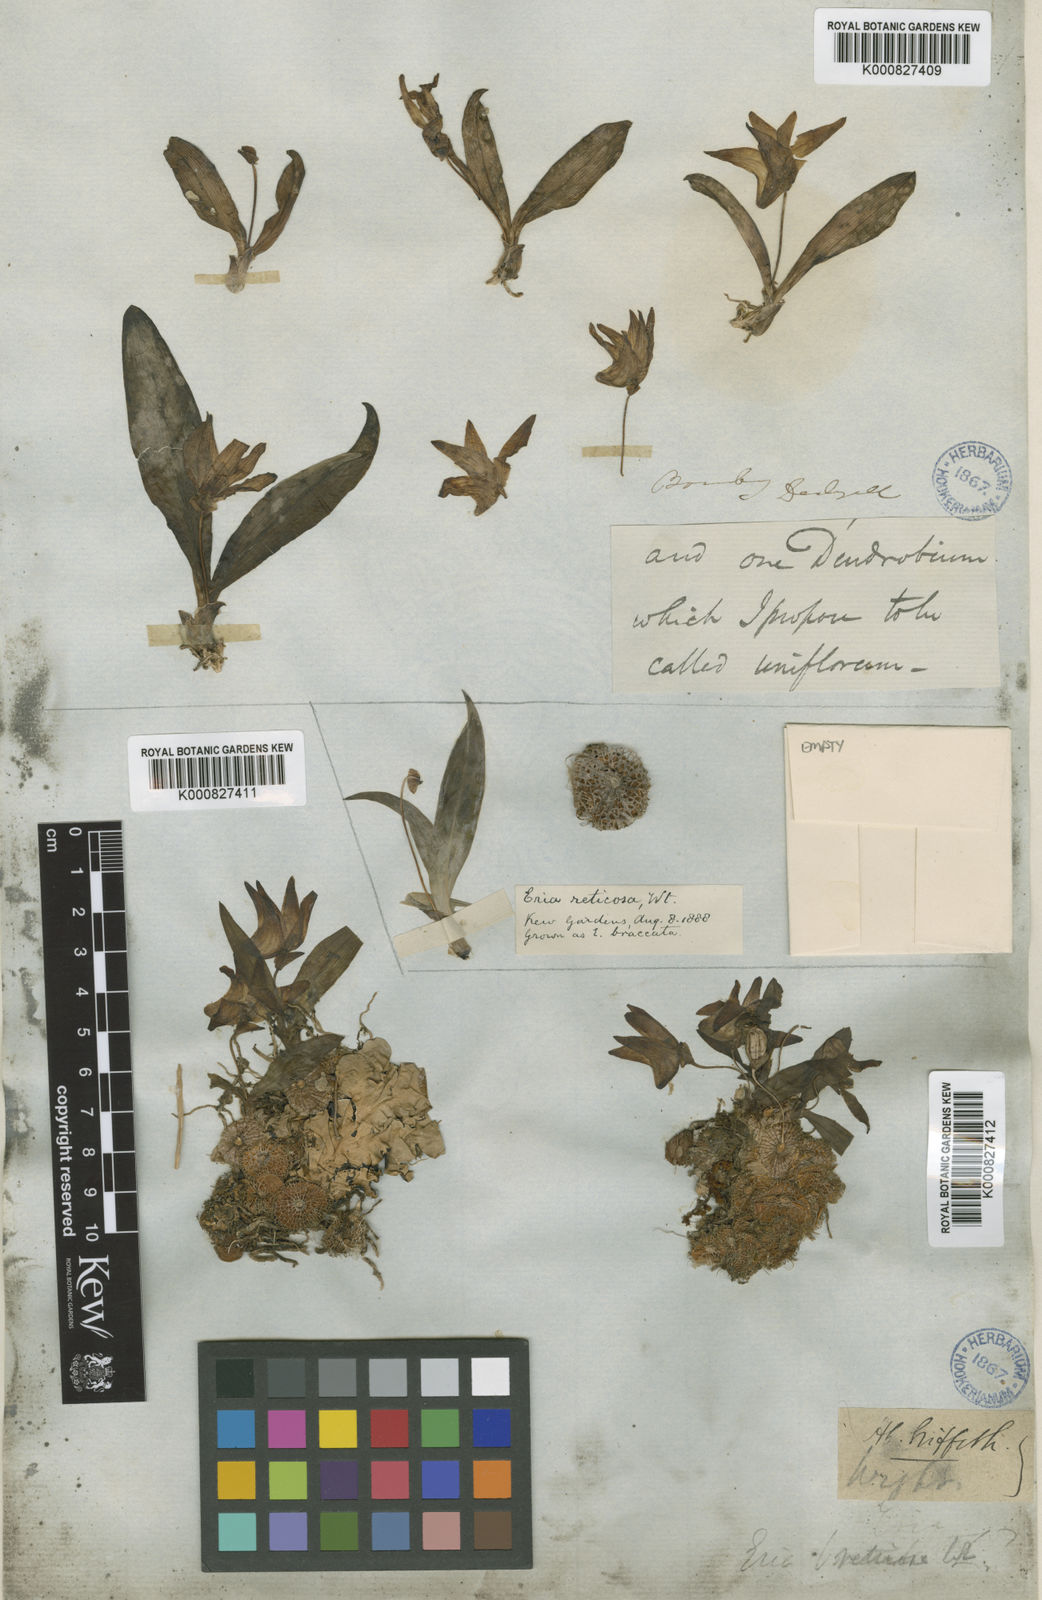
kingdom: Plantae
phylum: Tracheophyta
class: Liliopsida
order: Asparagales
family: Orchidaceae
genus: Porpax
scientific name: Porpax braccata
